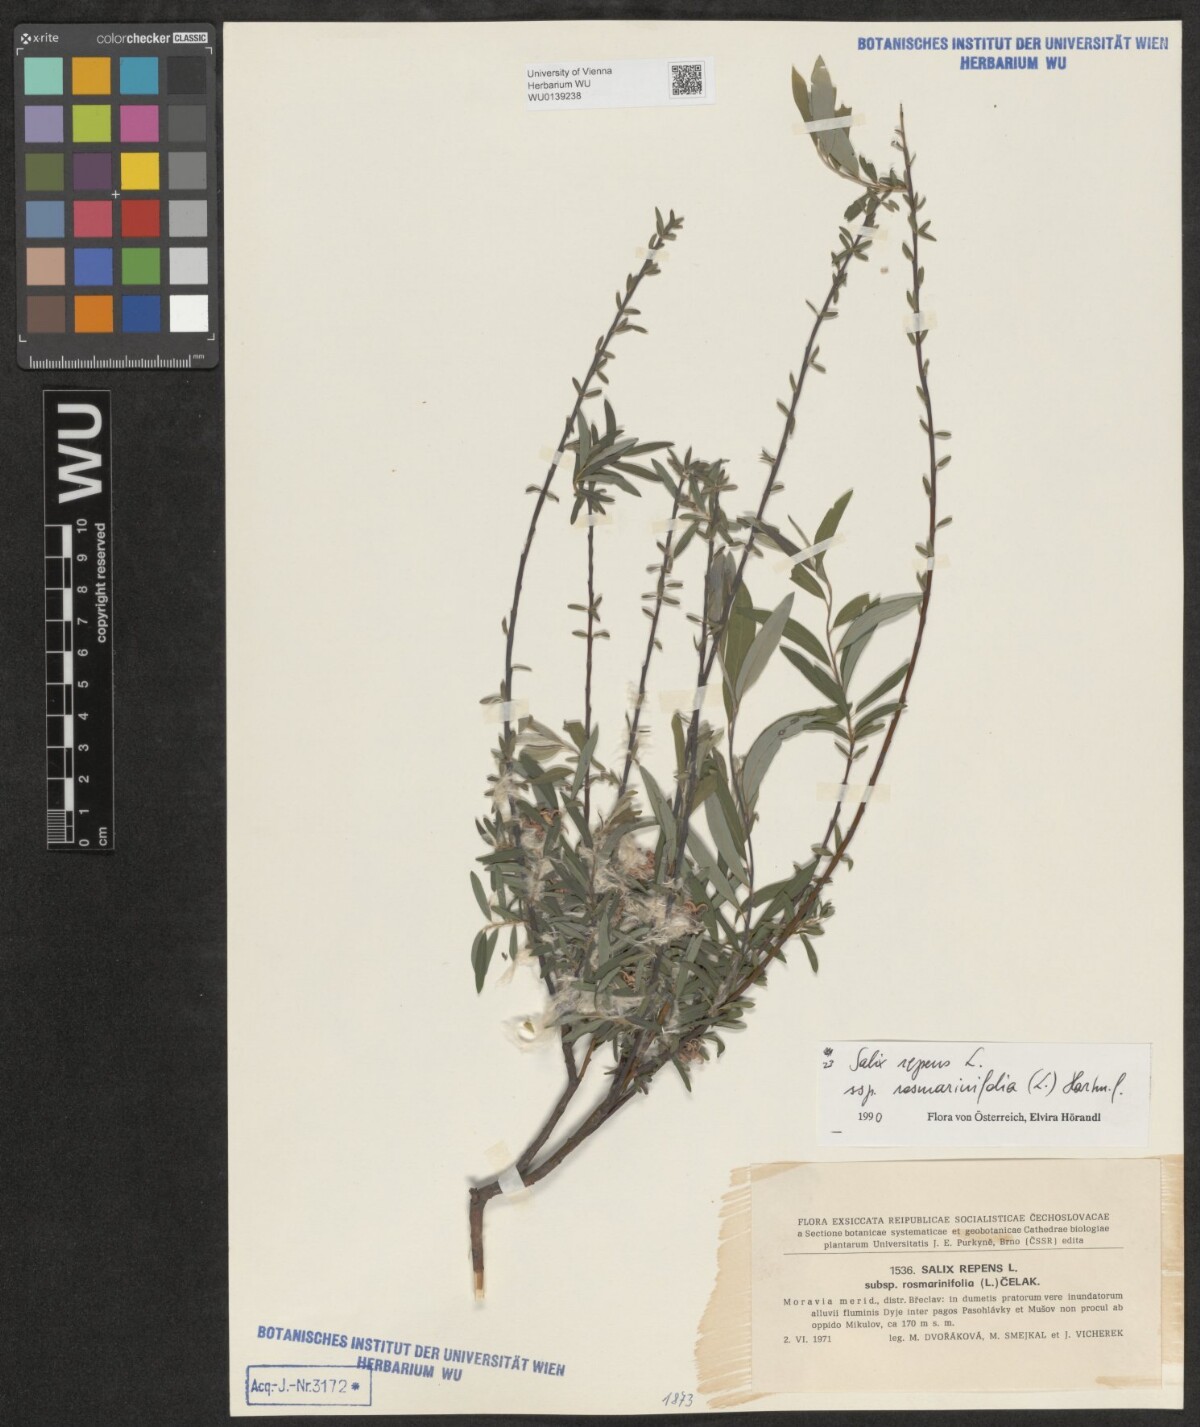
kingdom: Plantae
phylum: Tracheophyta
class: Magnoliopsida
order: Malpighiales
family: Salicaceae
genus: Salix
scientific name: Salix repens
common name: Creeping willow
